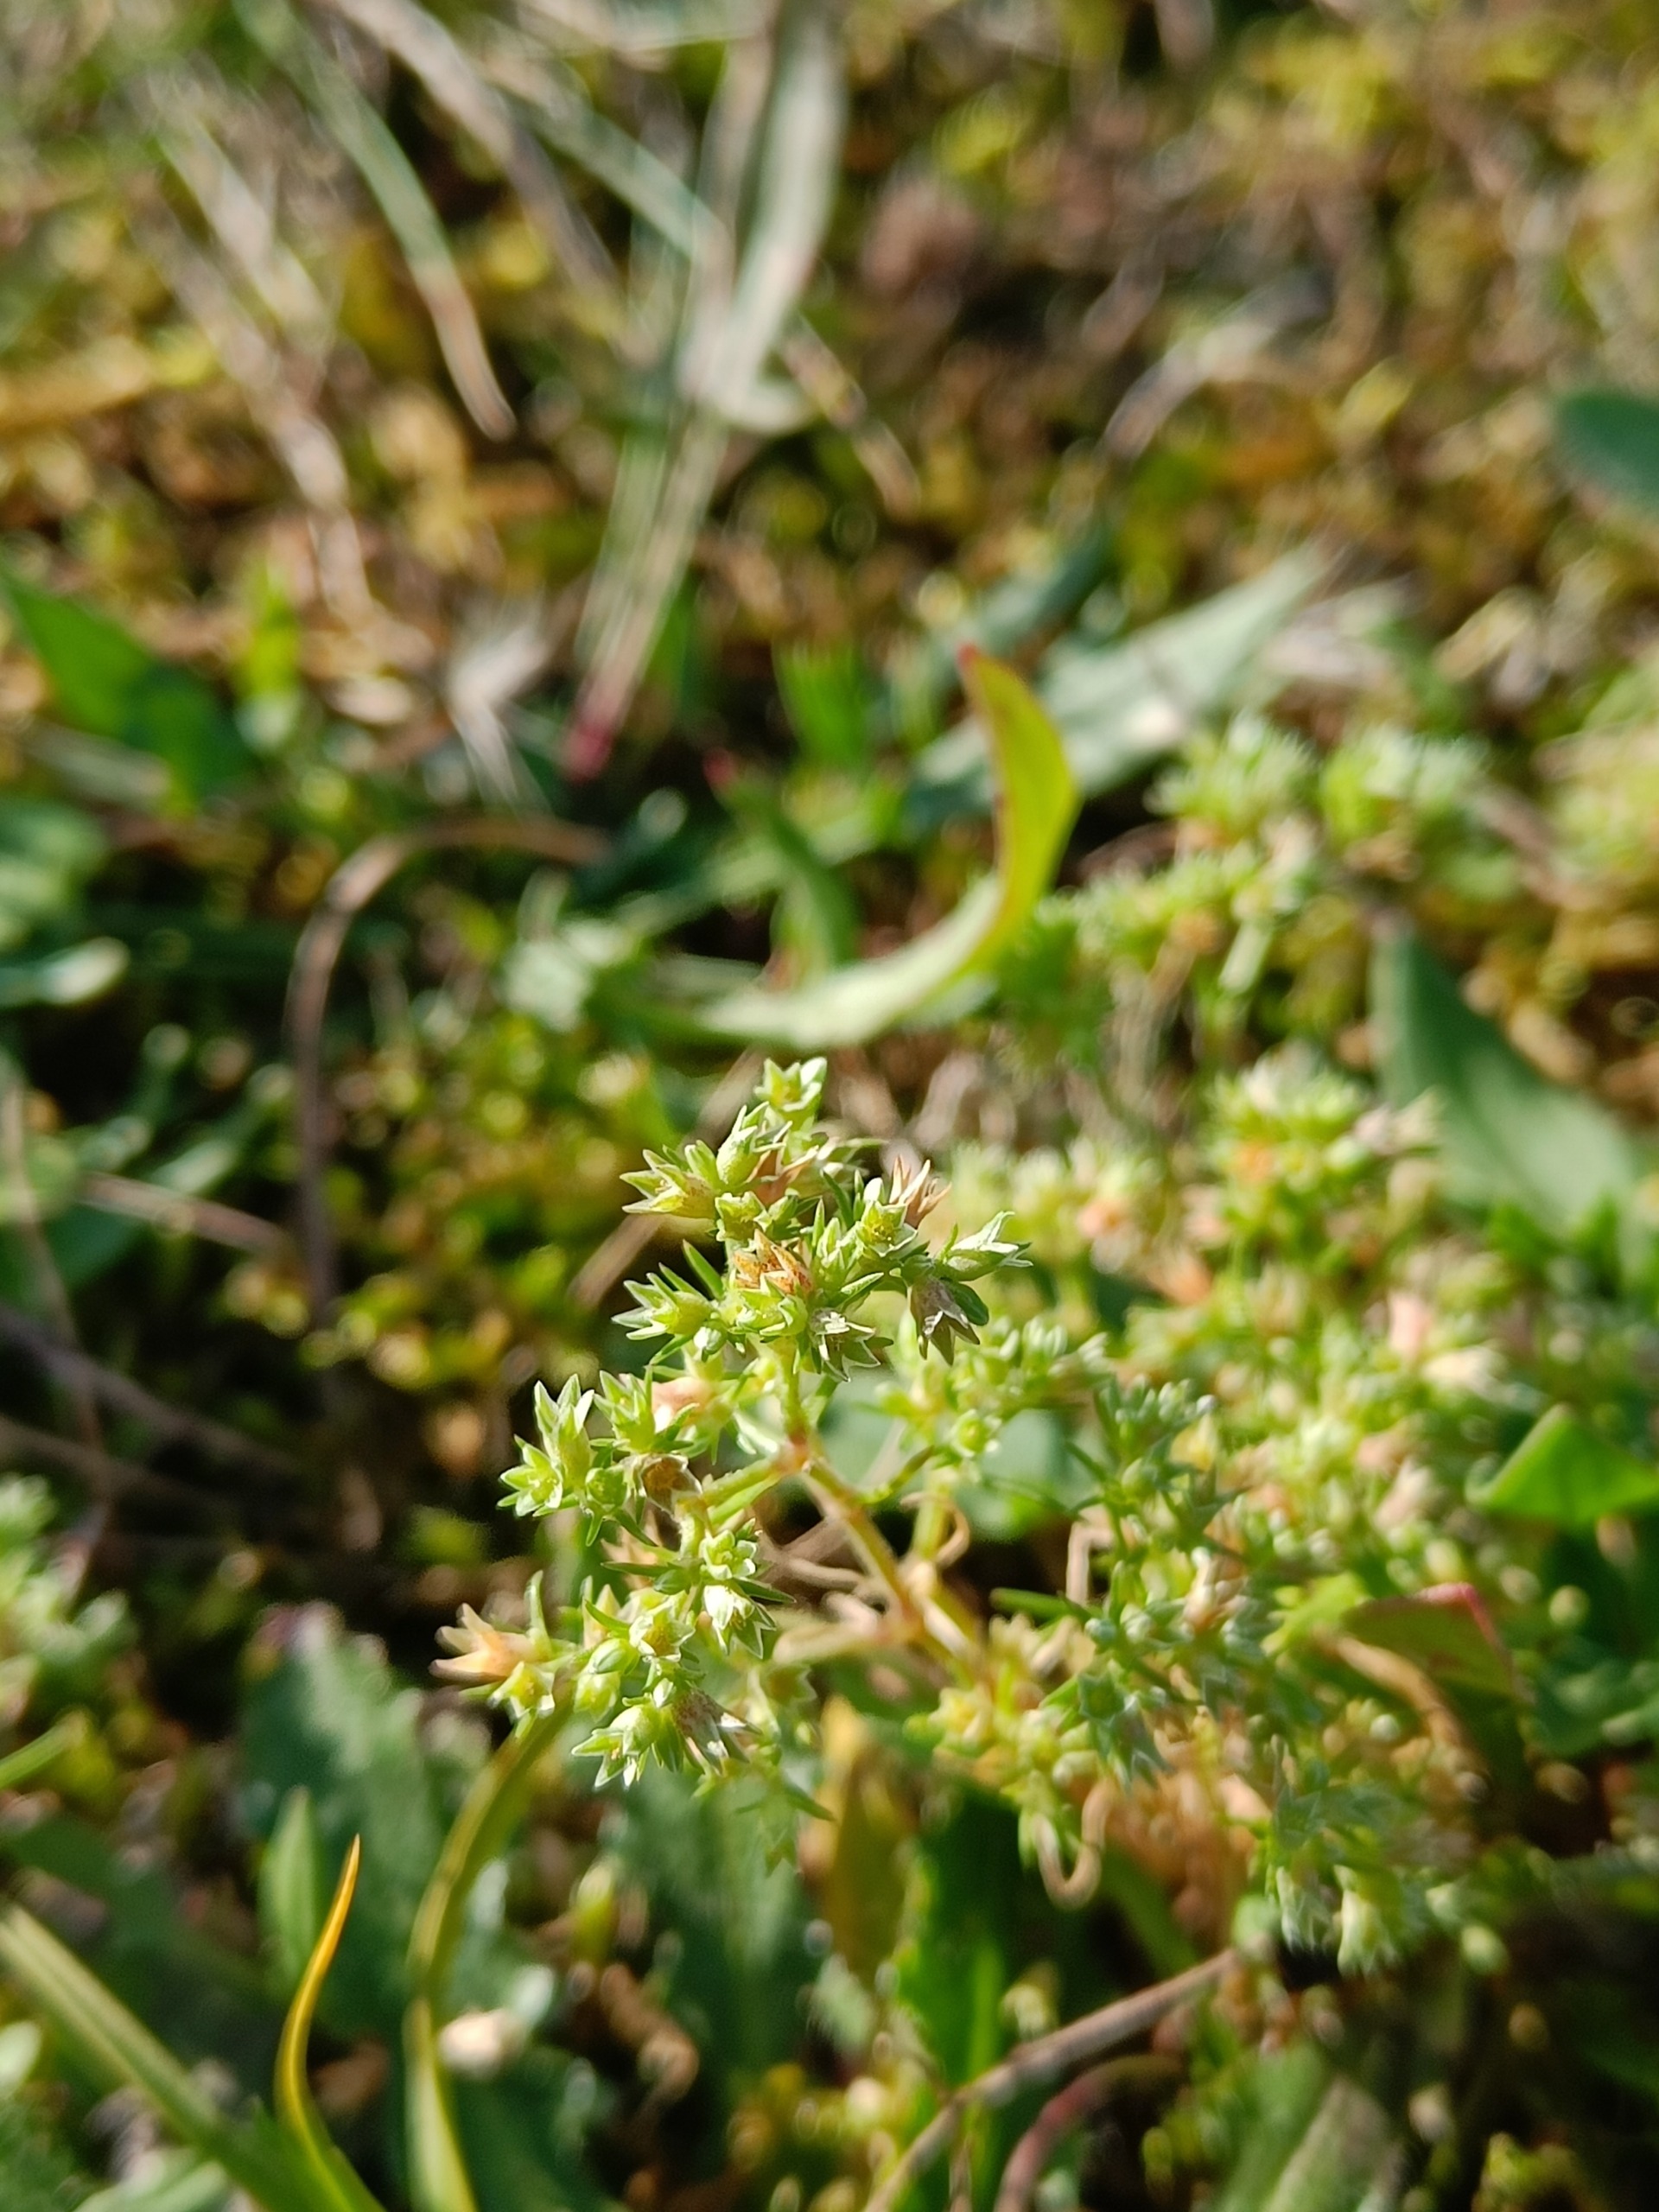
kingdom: Plantae
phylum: Tracheophyta
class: Magnoliopsida
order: Caryophyllales
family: Caryophyllaceae
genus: Scleranthus
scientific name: Scleranthus annuus
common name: Enårig knavel
